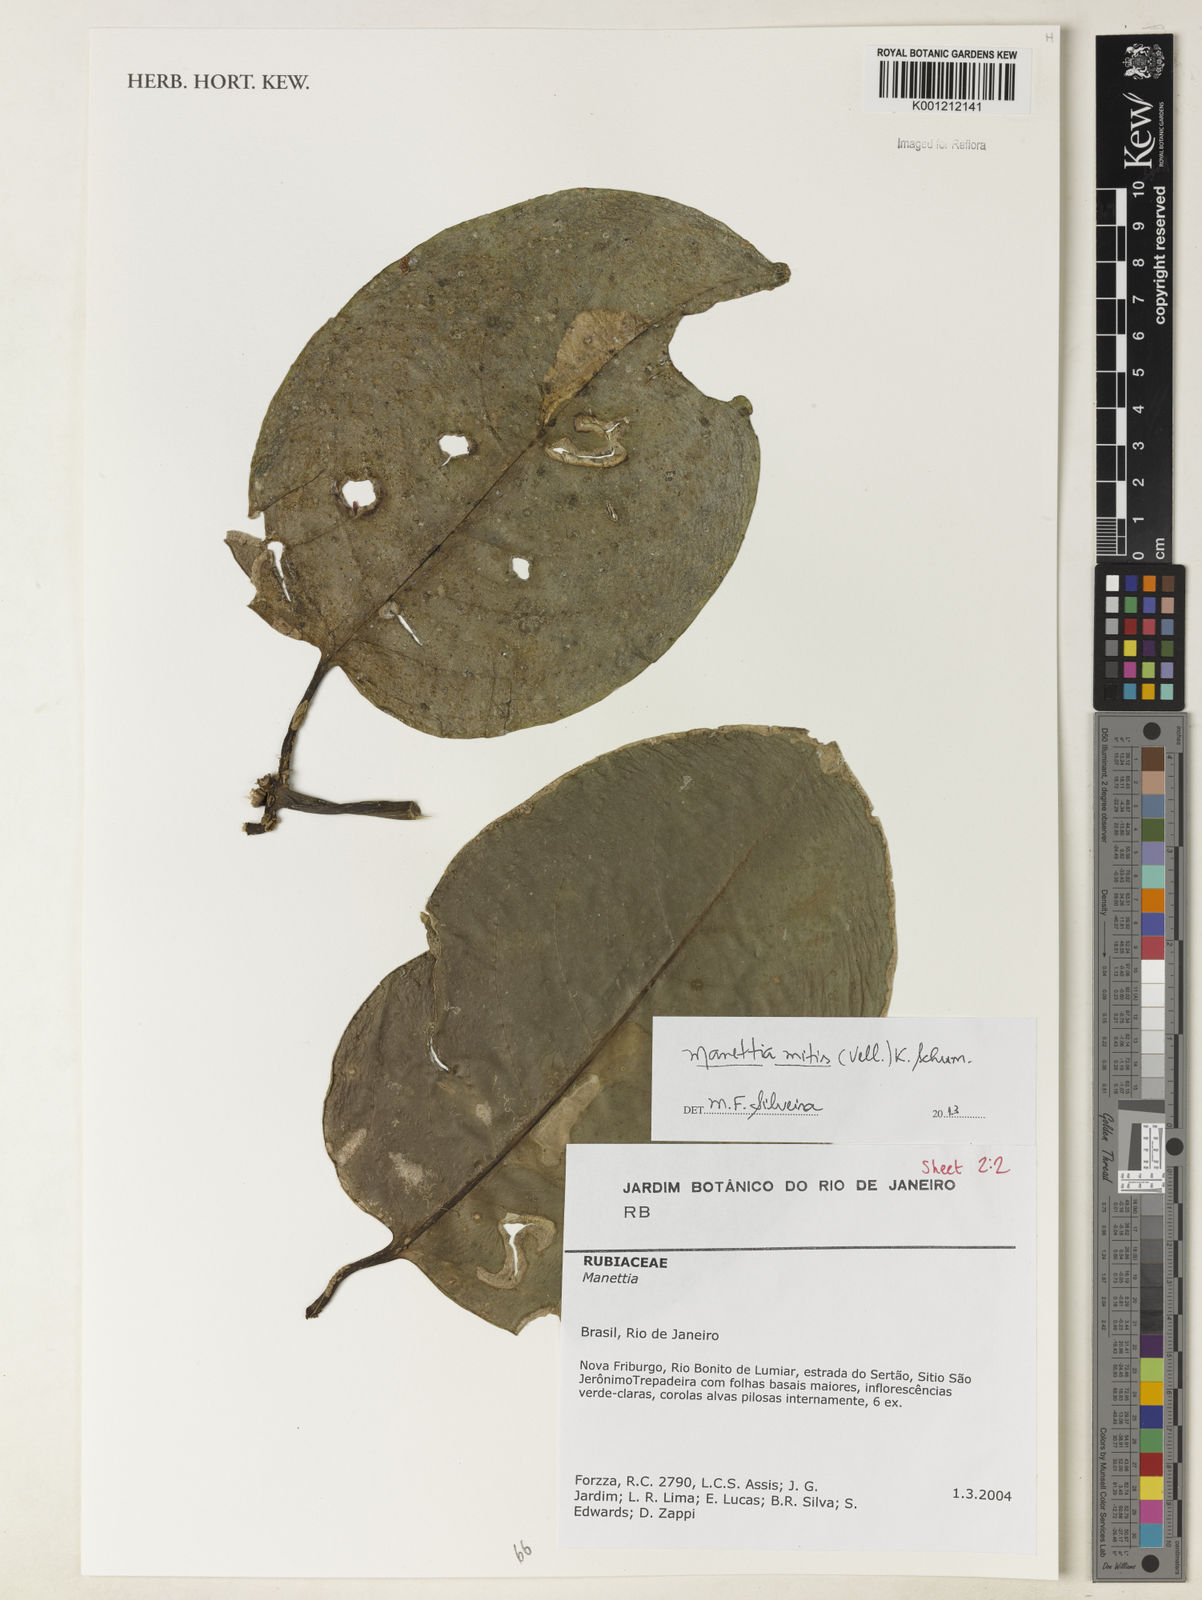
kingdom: Plantae
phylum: Tracheophyta
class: Magnoliopsida
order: Gentianales
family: Rubiaceae
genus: Manettia
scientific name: Manettia mitis
